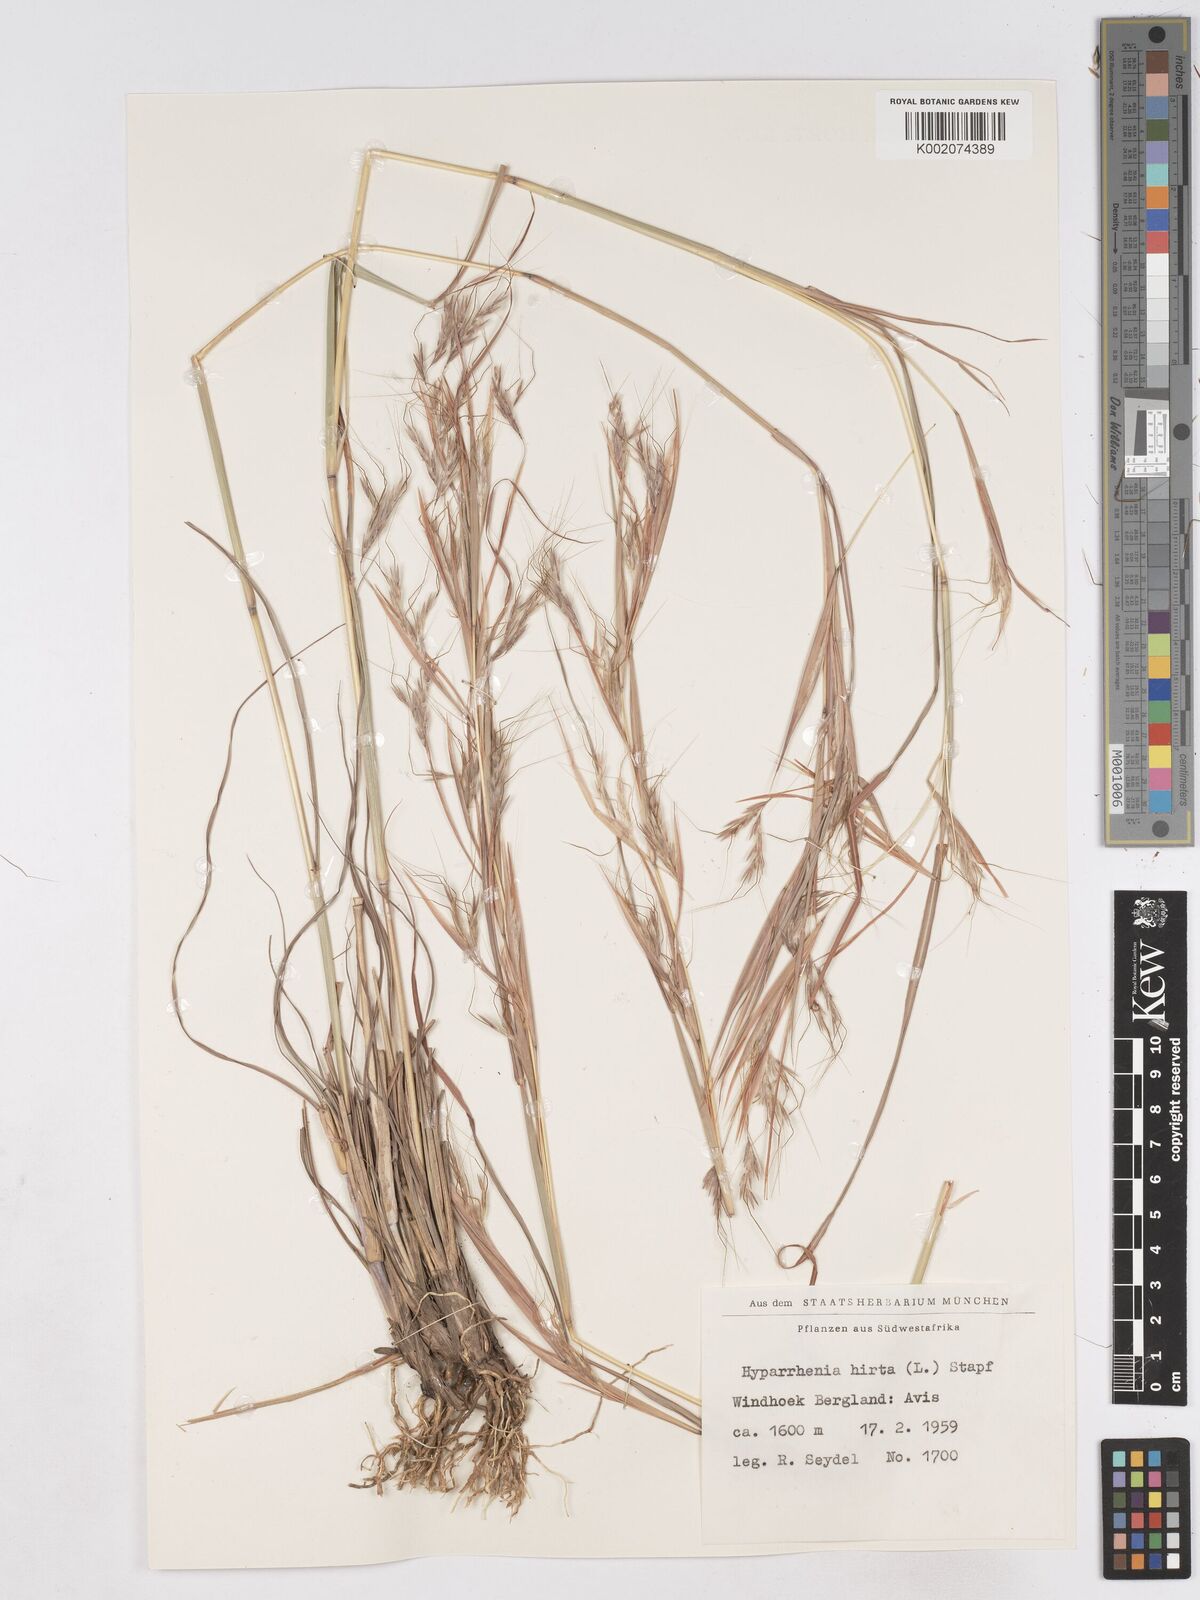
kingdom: Plantae
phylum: Tracheophyta
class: Liliopsida
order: Poales
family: Poaceae
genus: Hyparrhenia
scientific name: Hyparrhenia hirta
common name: Thatching grass
